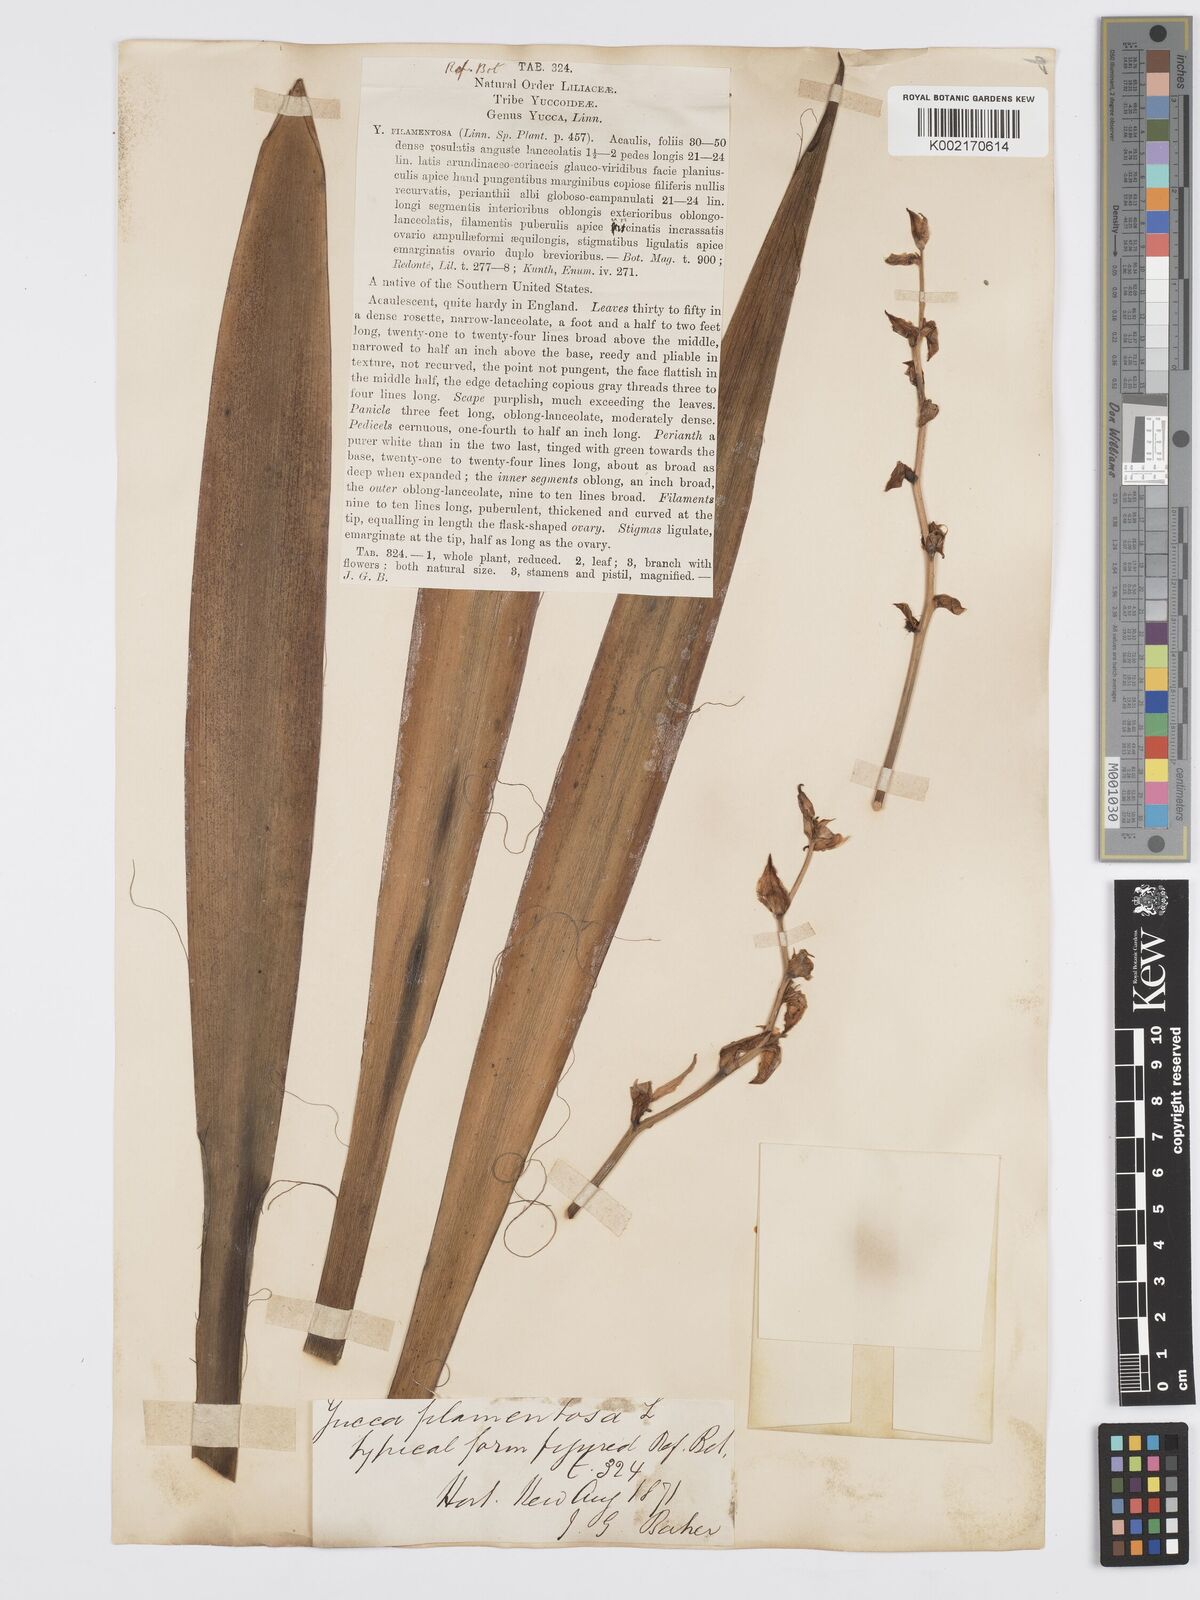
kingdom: Plantae
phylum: Tracheophyta
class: Liliopsida
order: Asparagales
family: Asparagaceae
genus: Yucca
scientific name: Yucca filamentosa
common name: Adam's-needle
